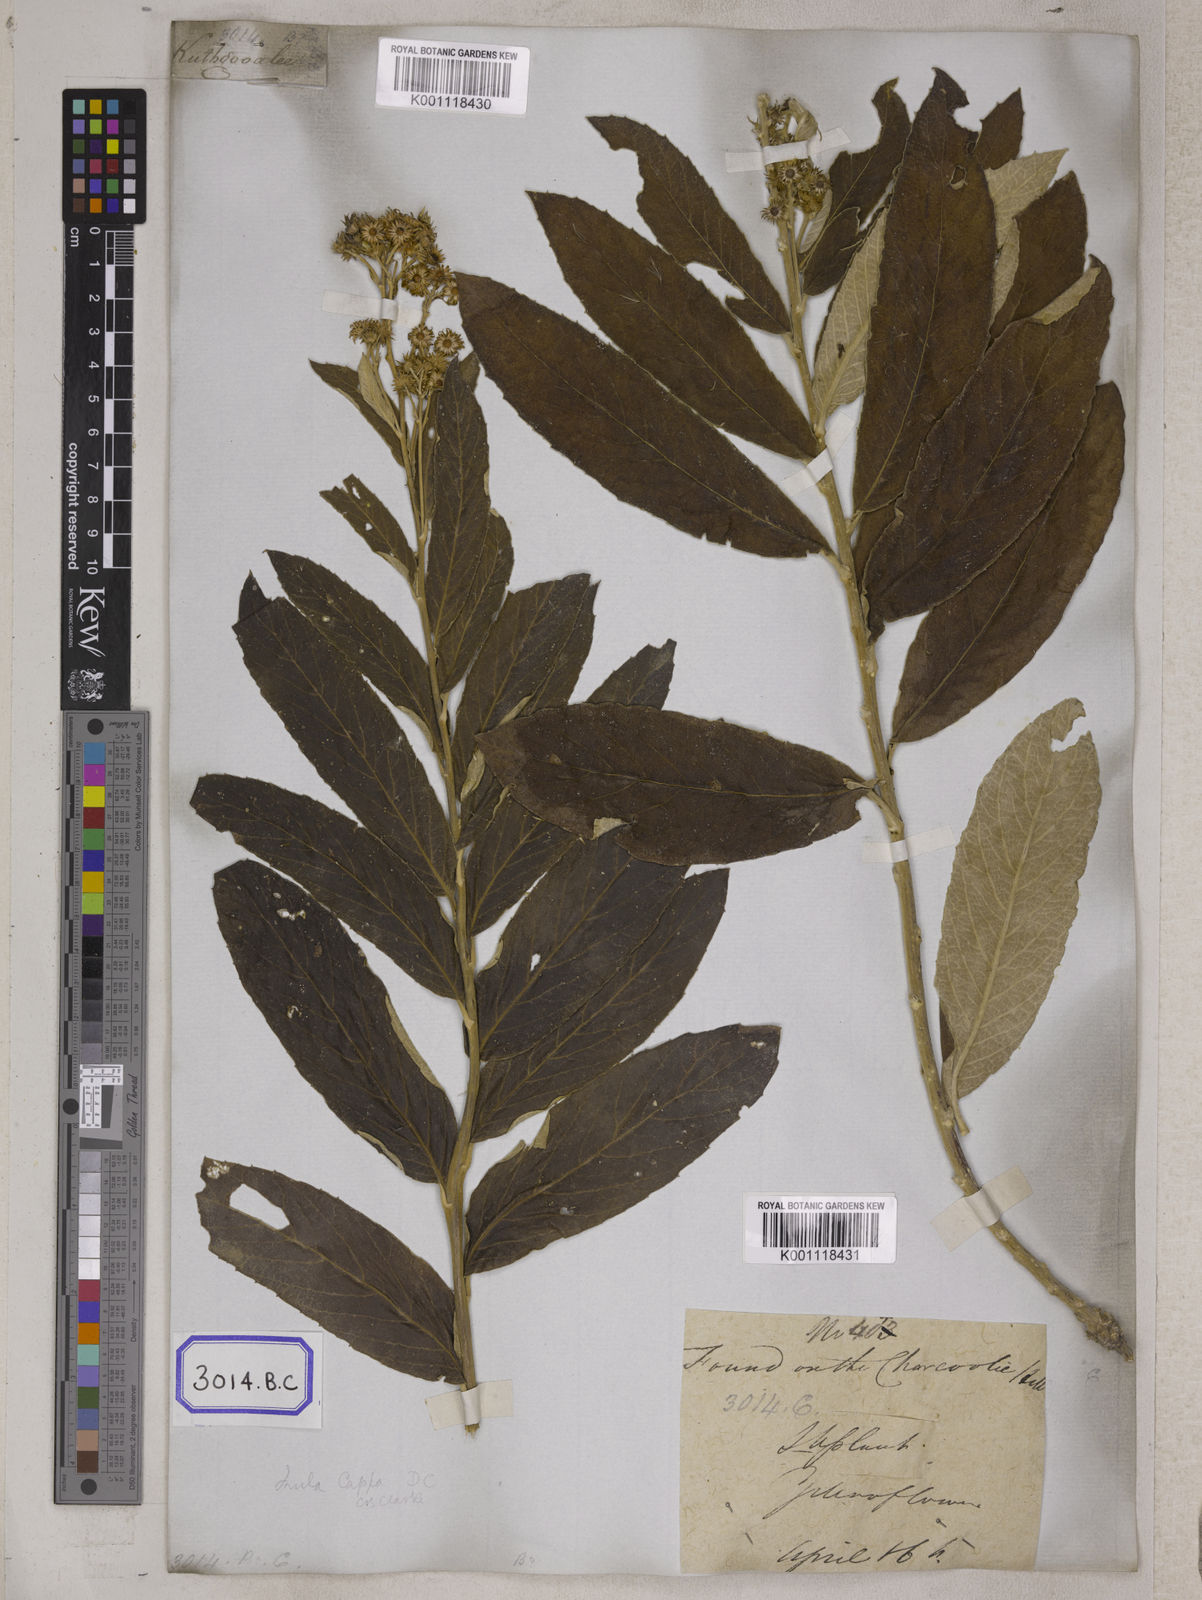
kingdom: Plantae
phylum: Tracheophyta
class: Magnoliopsida
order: Asterales
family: Asteraceae
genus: Duhaldea
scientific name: Duhaldea cappa
